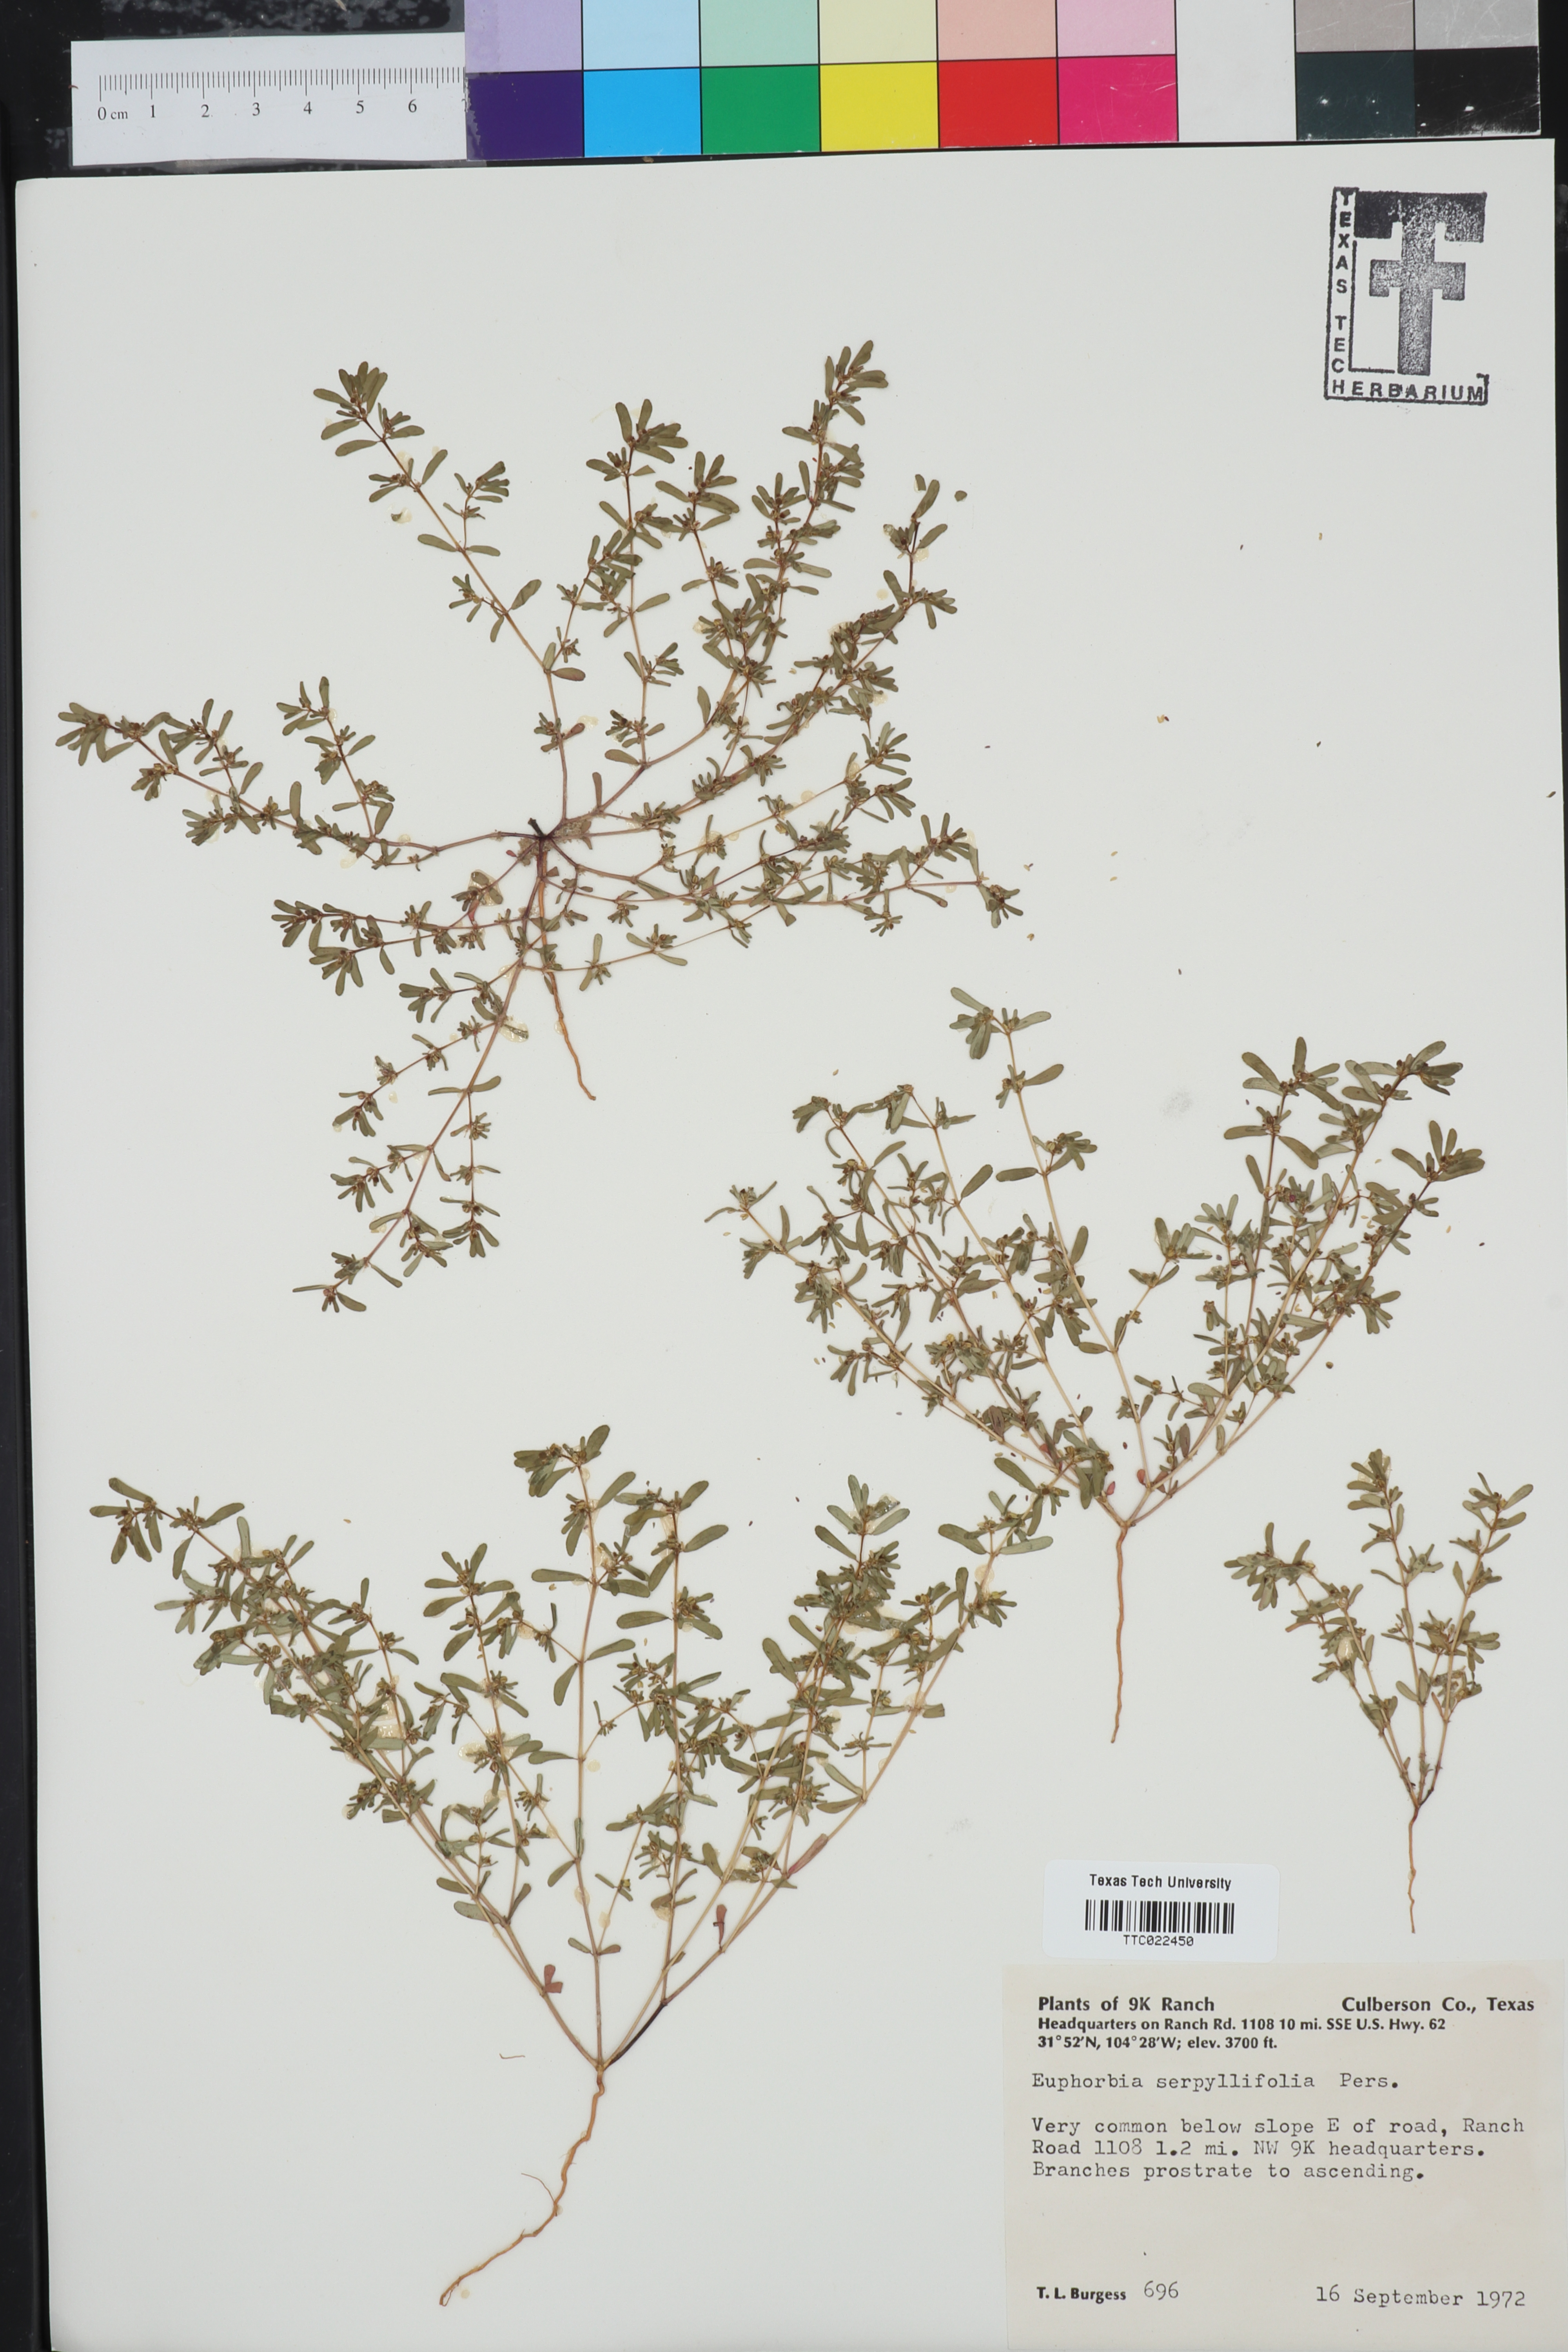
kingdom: Plantae
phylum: Tracheophyta
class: Magnoliopsida
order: Malpighiales
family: Euphorbiaceae
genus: Euphorbia
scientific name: Euphorbia serpillifolia
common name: Thyme-leaf spurge
